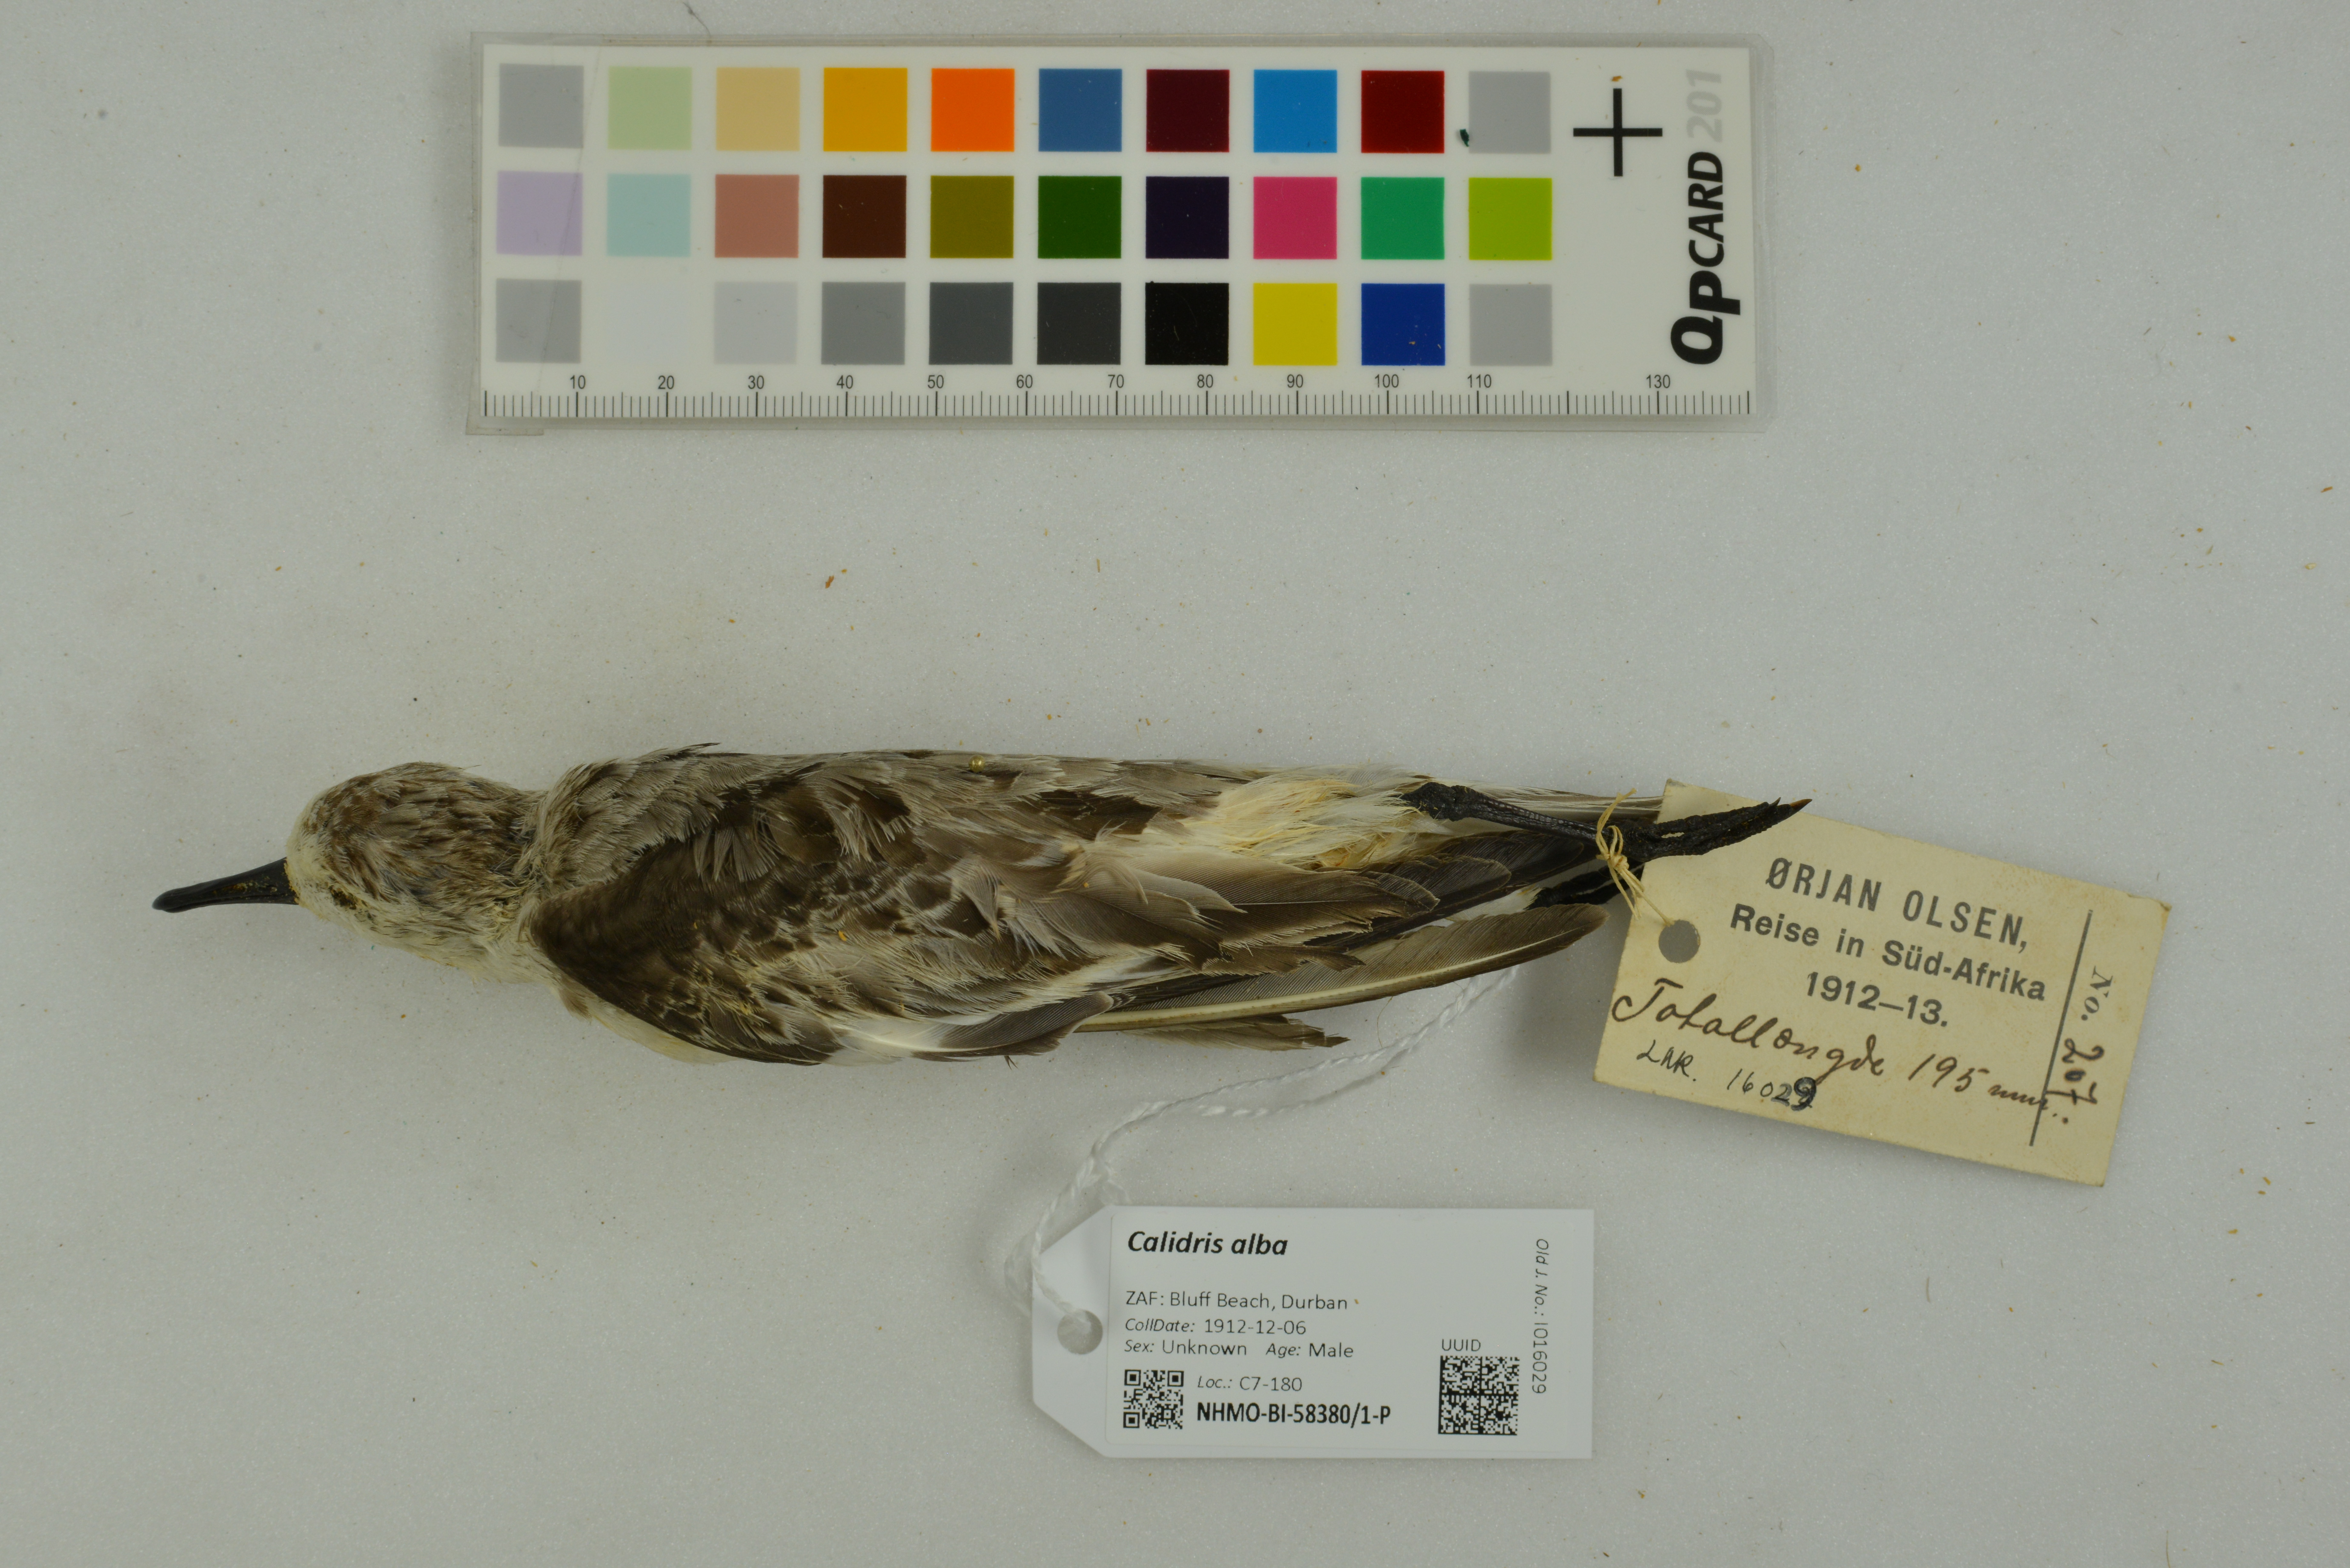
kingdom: Animalia
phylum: Chordata
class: Aves
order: Charadriiformes
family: Scolopacidae
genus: Calidris
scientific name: Calidris alba
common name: Sanderling
